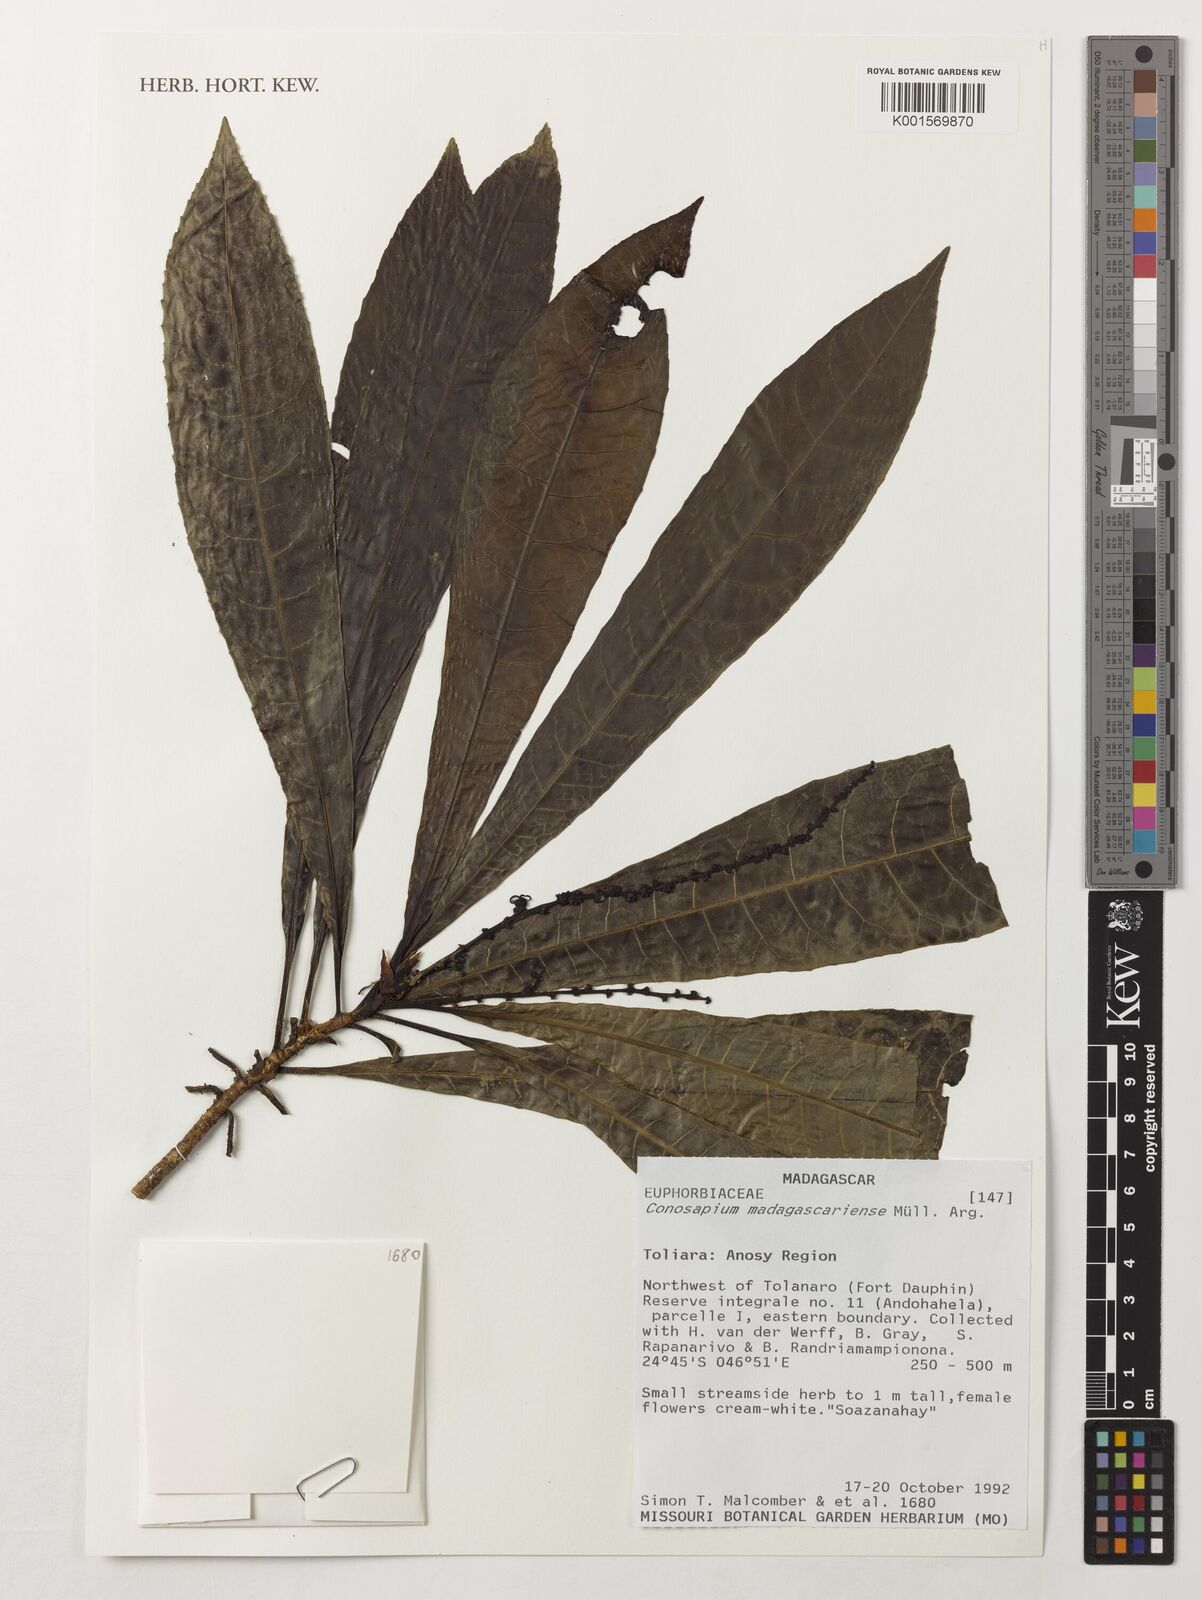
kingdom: Plantae
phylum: Tracheophyta
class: Magnoliopsida
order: Malpighiales
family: Euphorbiaceae
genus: Conosapium
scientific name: Conosapium madagascariense
